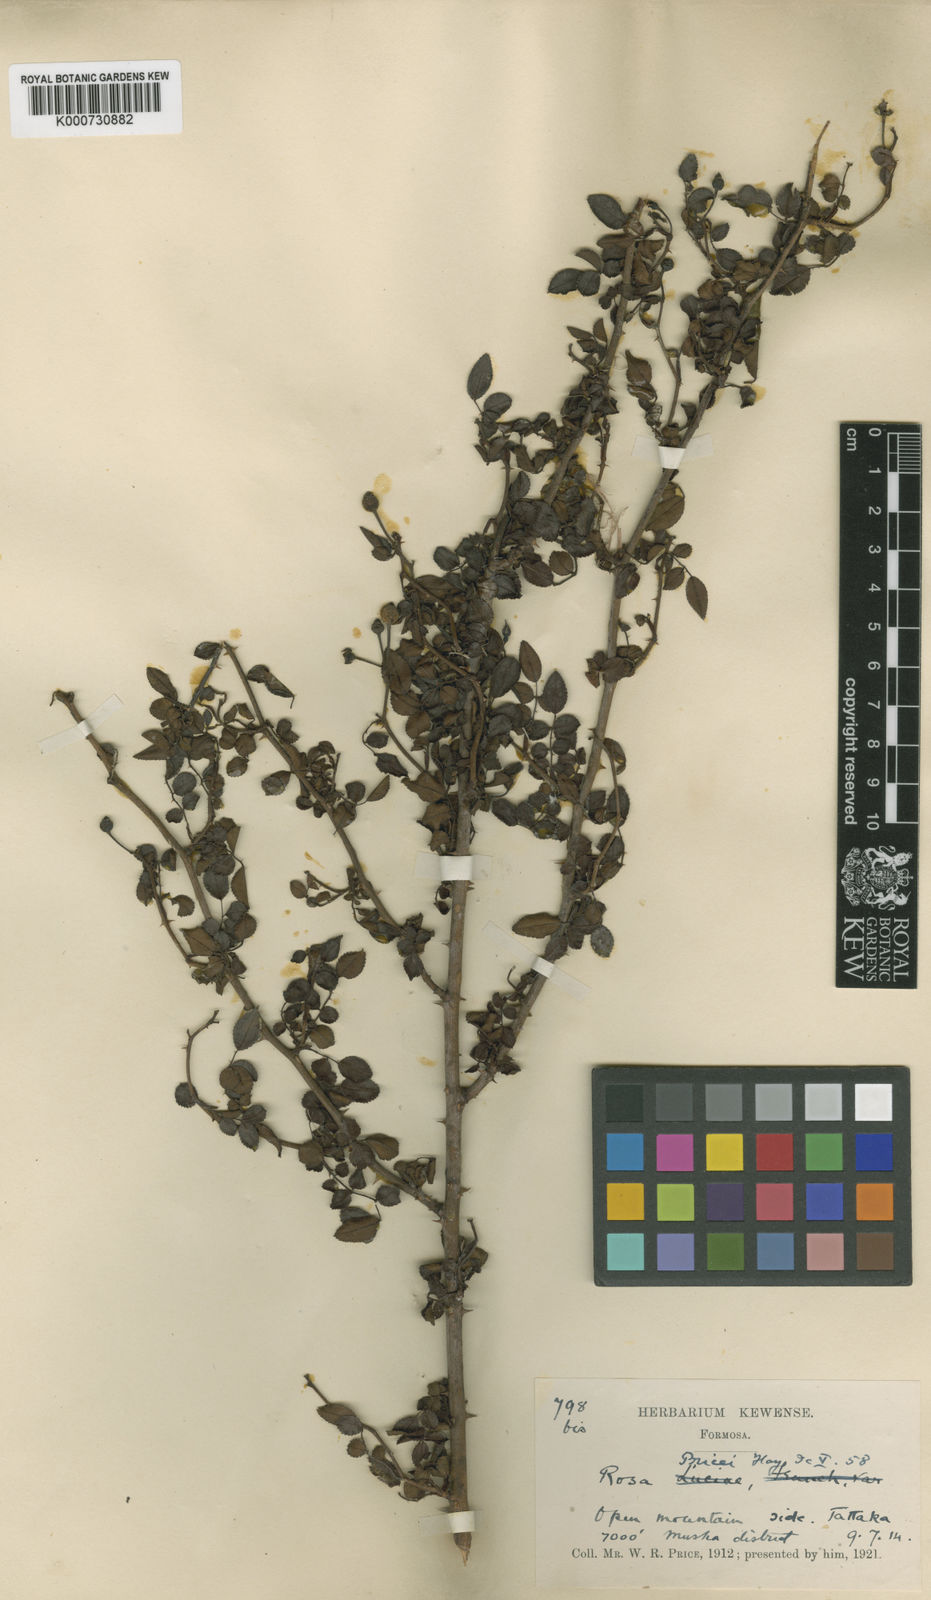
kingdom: Plantae
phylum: Tracheophyta
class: Magnoliopsida
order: Rosales
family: Rosaceae
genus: Rosa
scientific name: Rosa pricei
